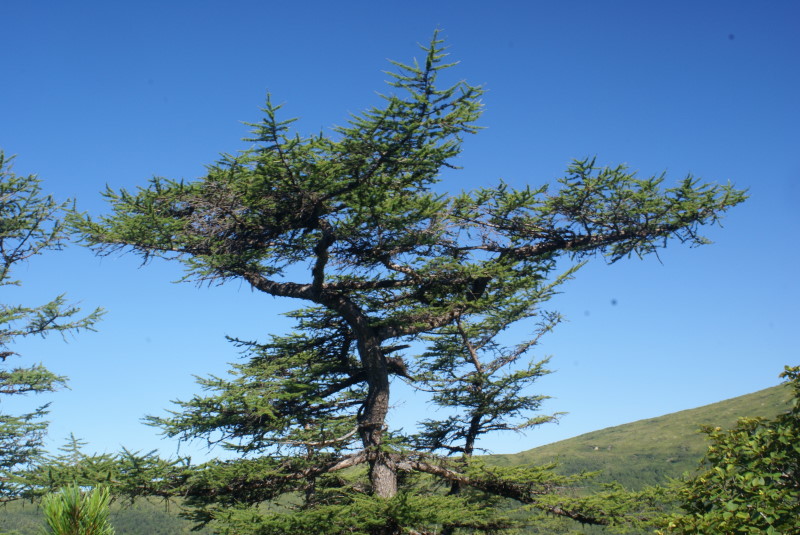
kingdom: Plantae
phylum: Tracheophyta
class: Pinopsida
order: Pinales
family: Pinaceae
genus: Larix
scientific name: Larix gmelinii
